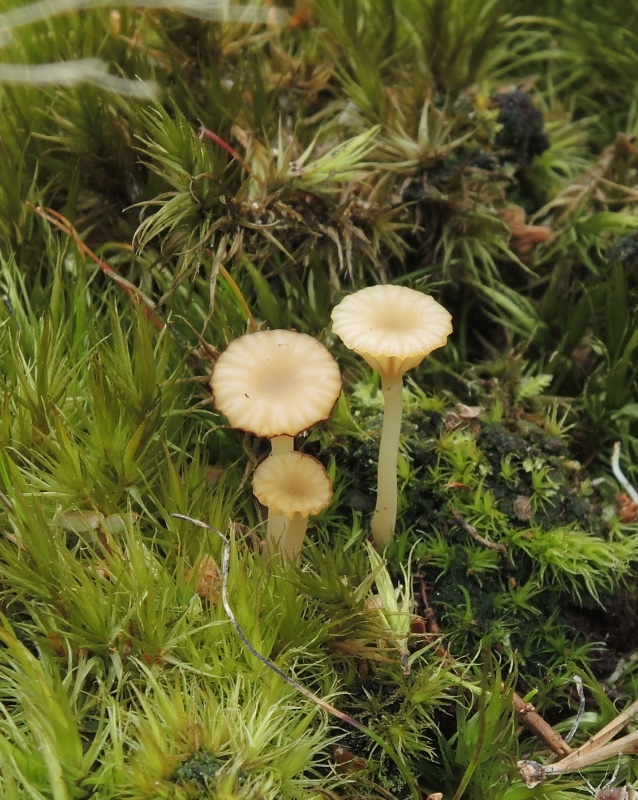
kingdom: Fungi
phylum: Basidiomycota
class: Agaricomycetes
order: Agaricales
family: Hygrophoraceae
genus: Lichenomphalia
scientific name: Lichenomphalia umbellifera
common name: tørve-lavhat
